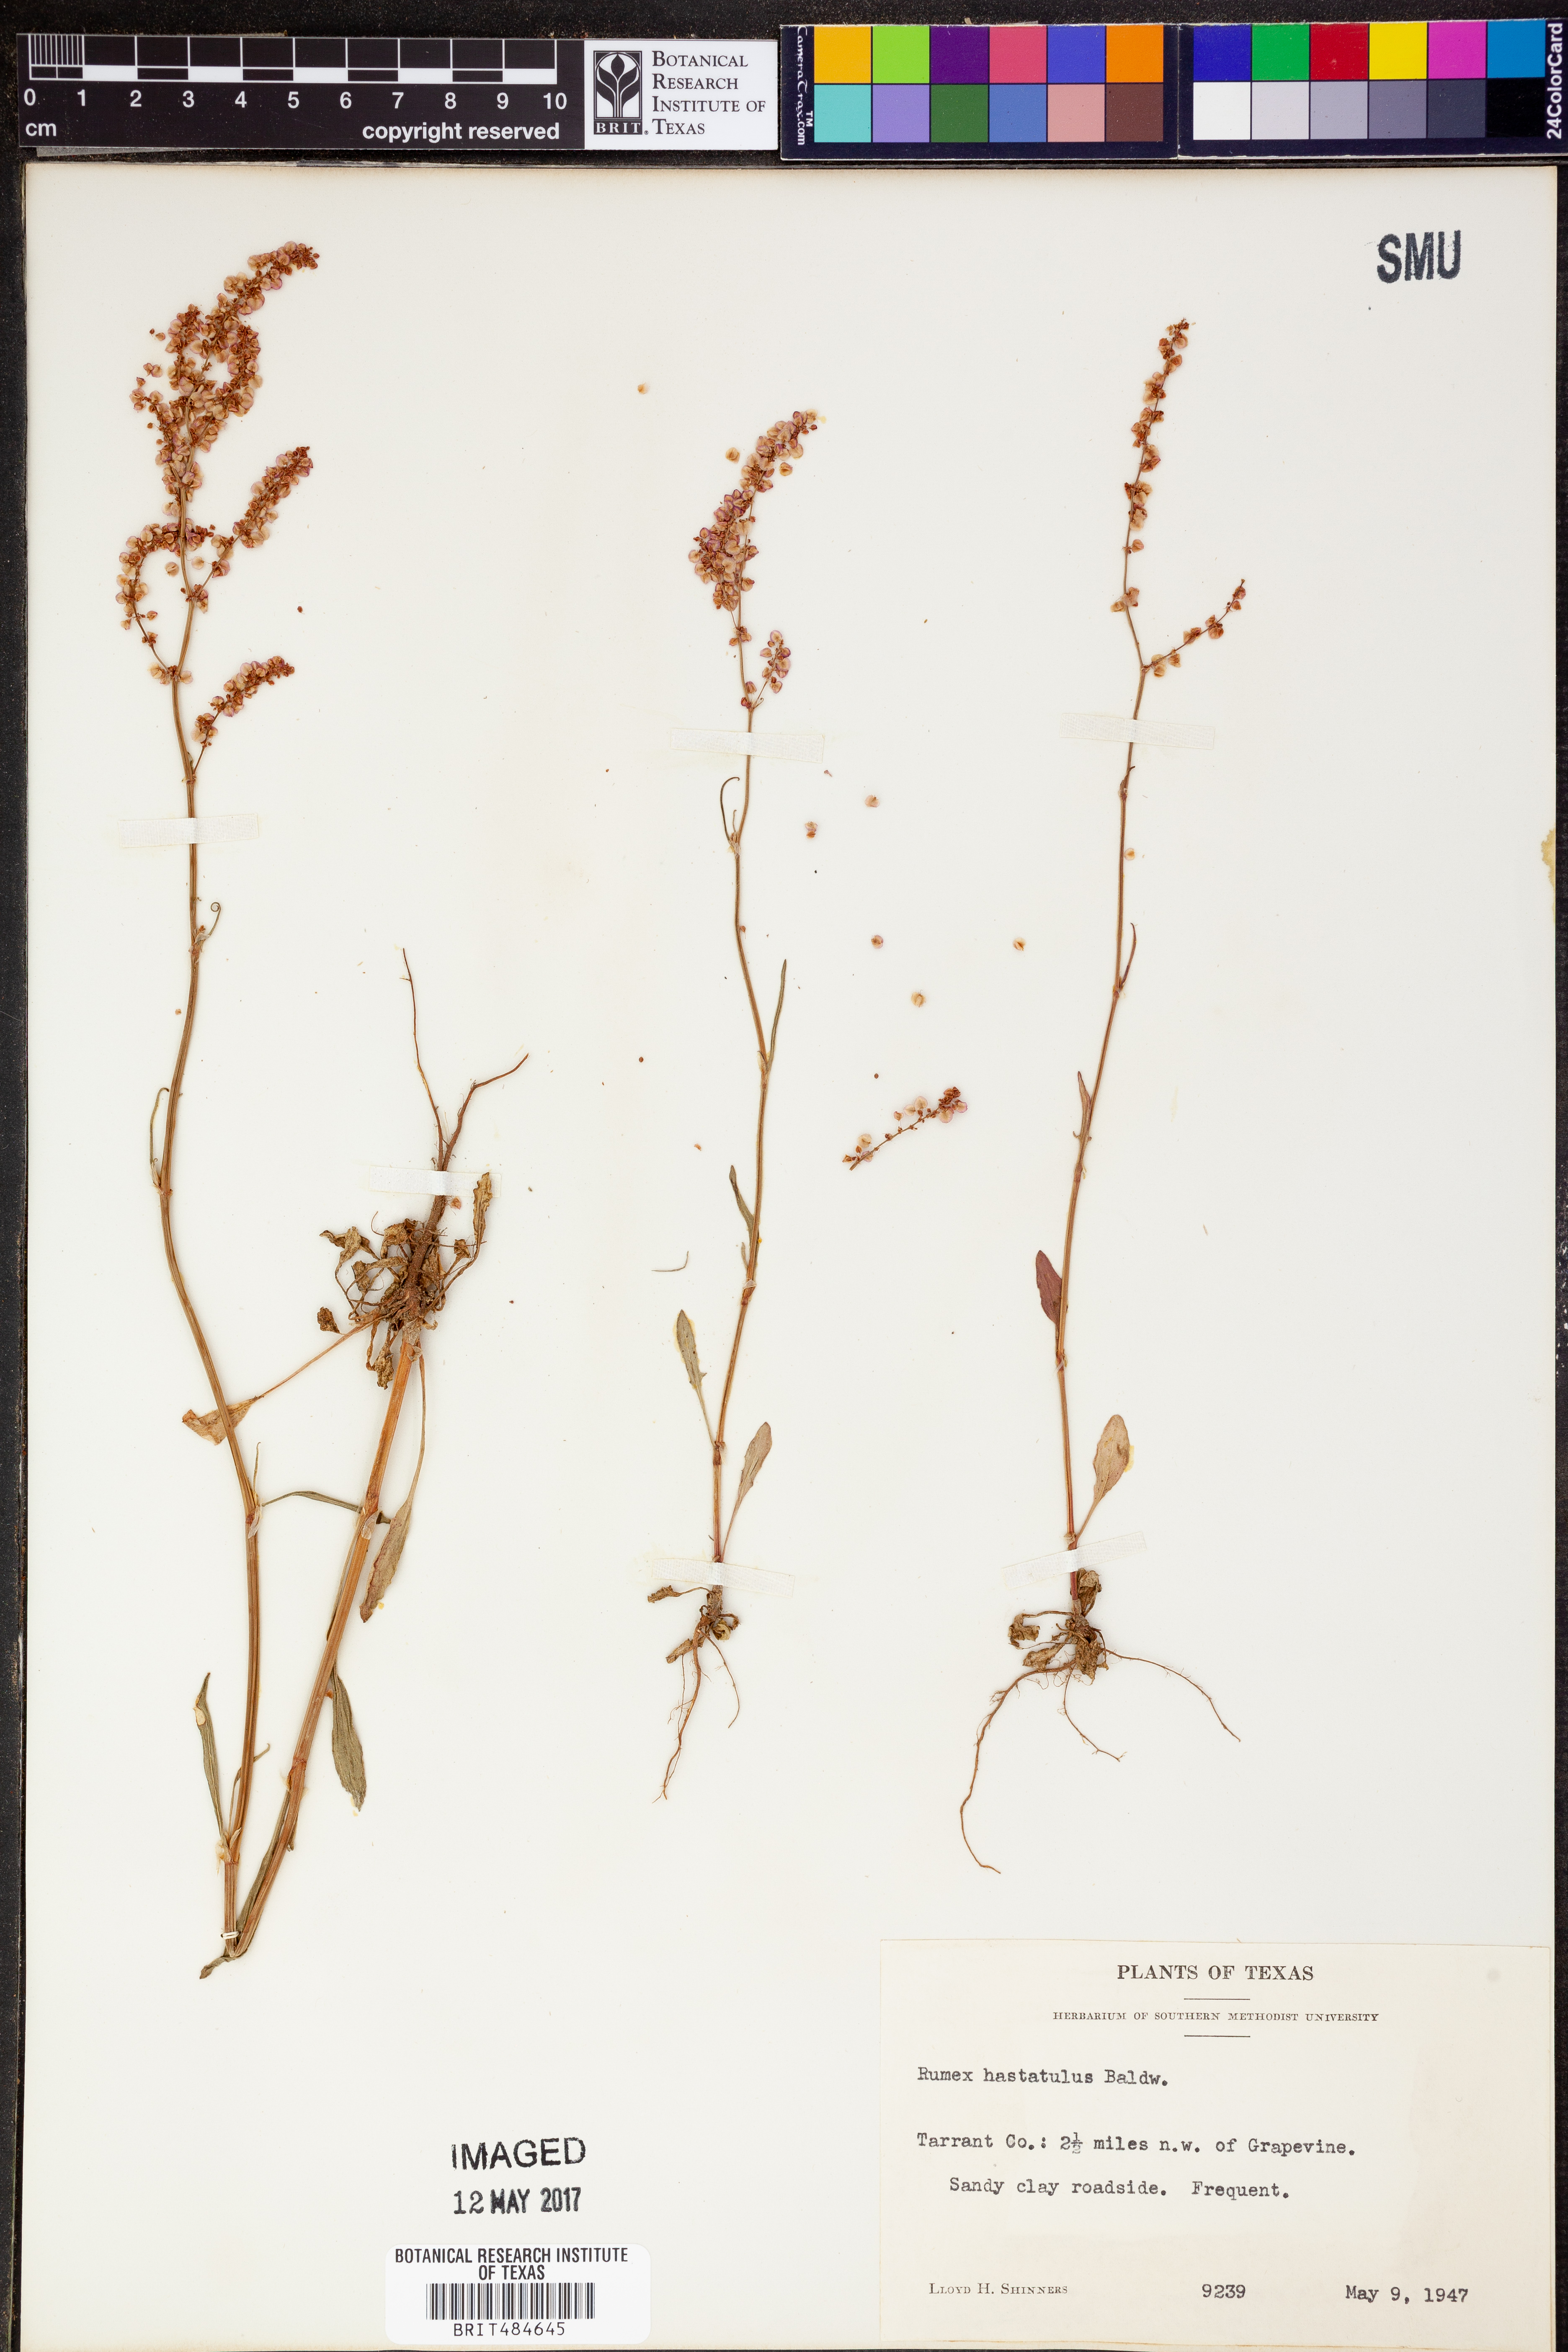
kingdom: Plantae
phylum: Tracheophyta
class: Magnoliopsida
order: Caryophyllales
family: Polygonaceae
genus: Rumex
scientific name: Rumex hastatulus
